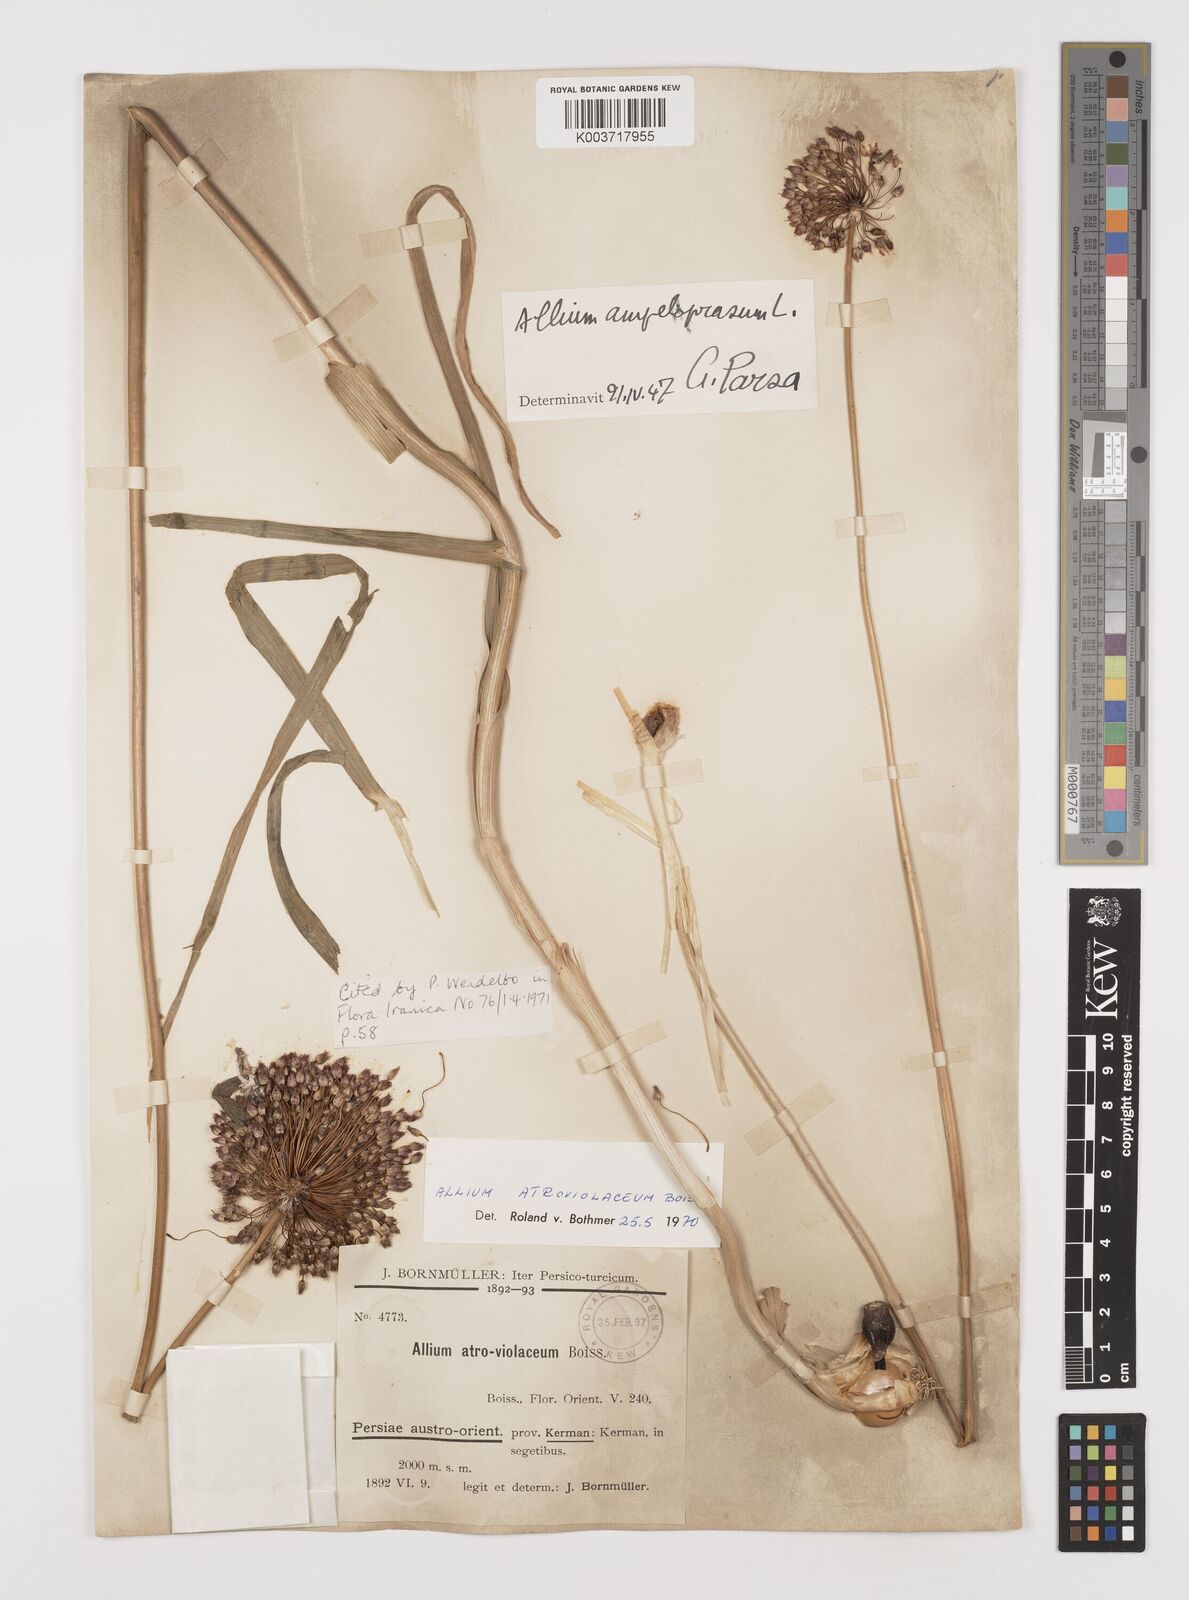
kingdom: Plantae
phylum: Tracheophyta
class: Liliopsida
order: Asparagales
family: Amaryllidaceae
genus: Allium
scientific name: Allium atroviolaceum
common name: Broadleaf wild leek
